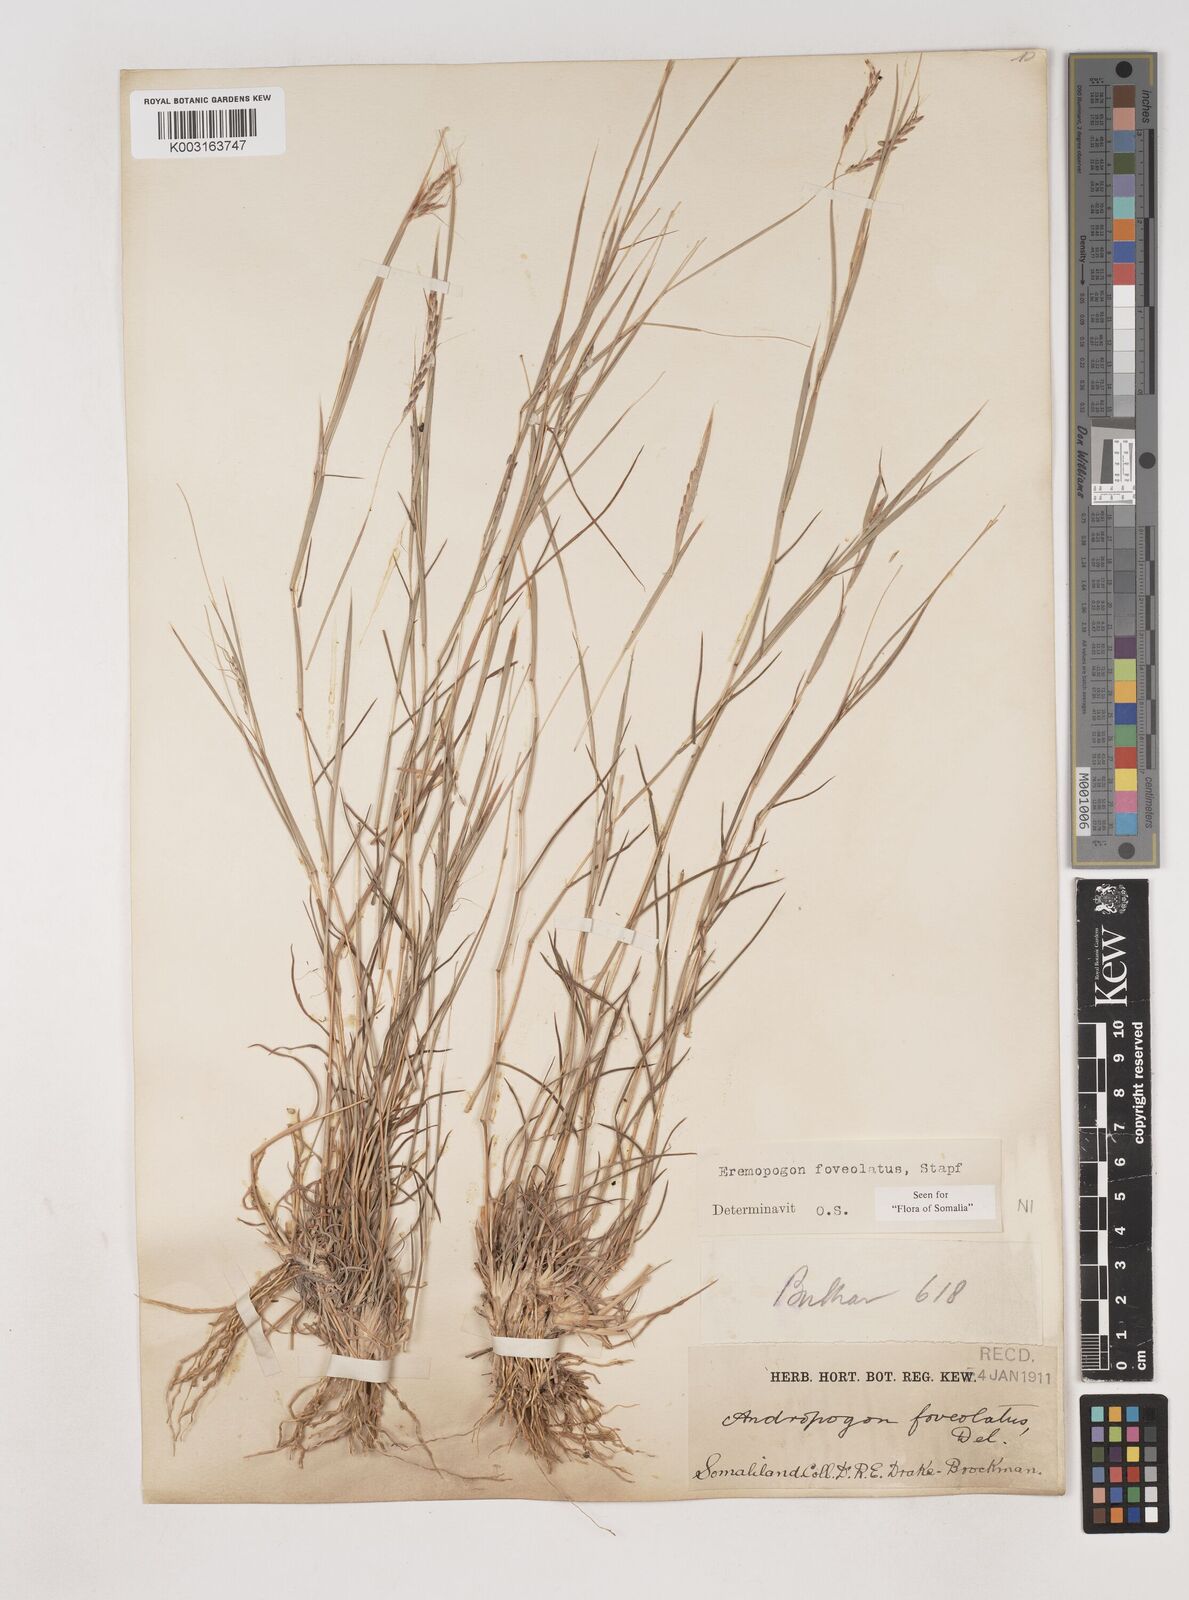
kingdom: Plantae
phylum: Tracheophyta
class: Liliopsida
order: Poales
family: Poaceae
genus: Dichanthium
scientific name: Dichanthium foveolatum
